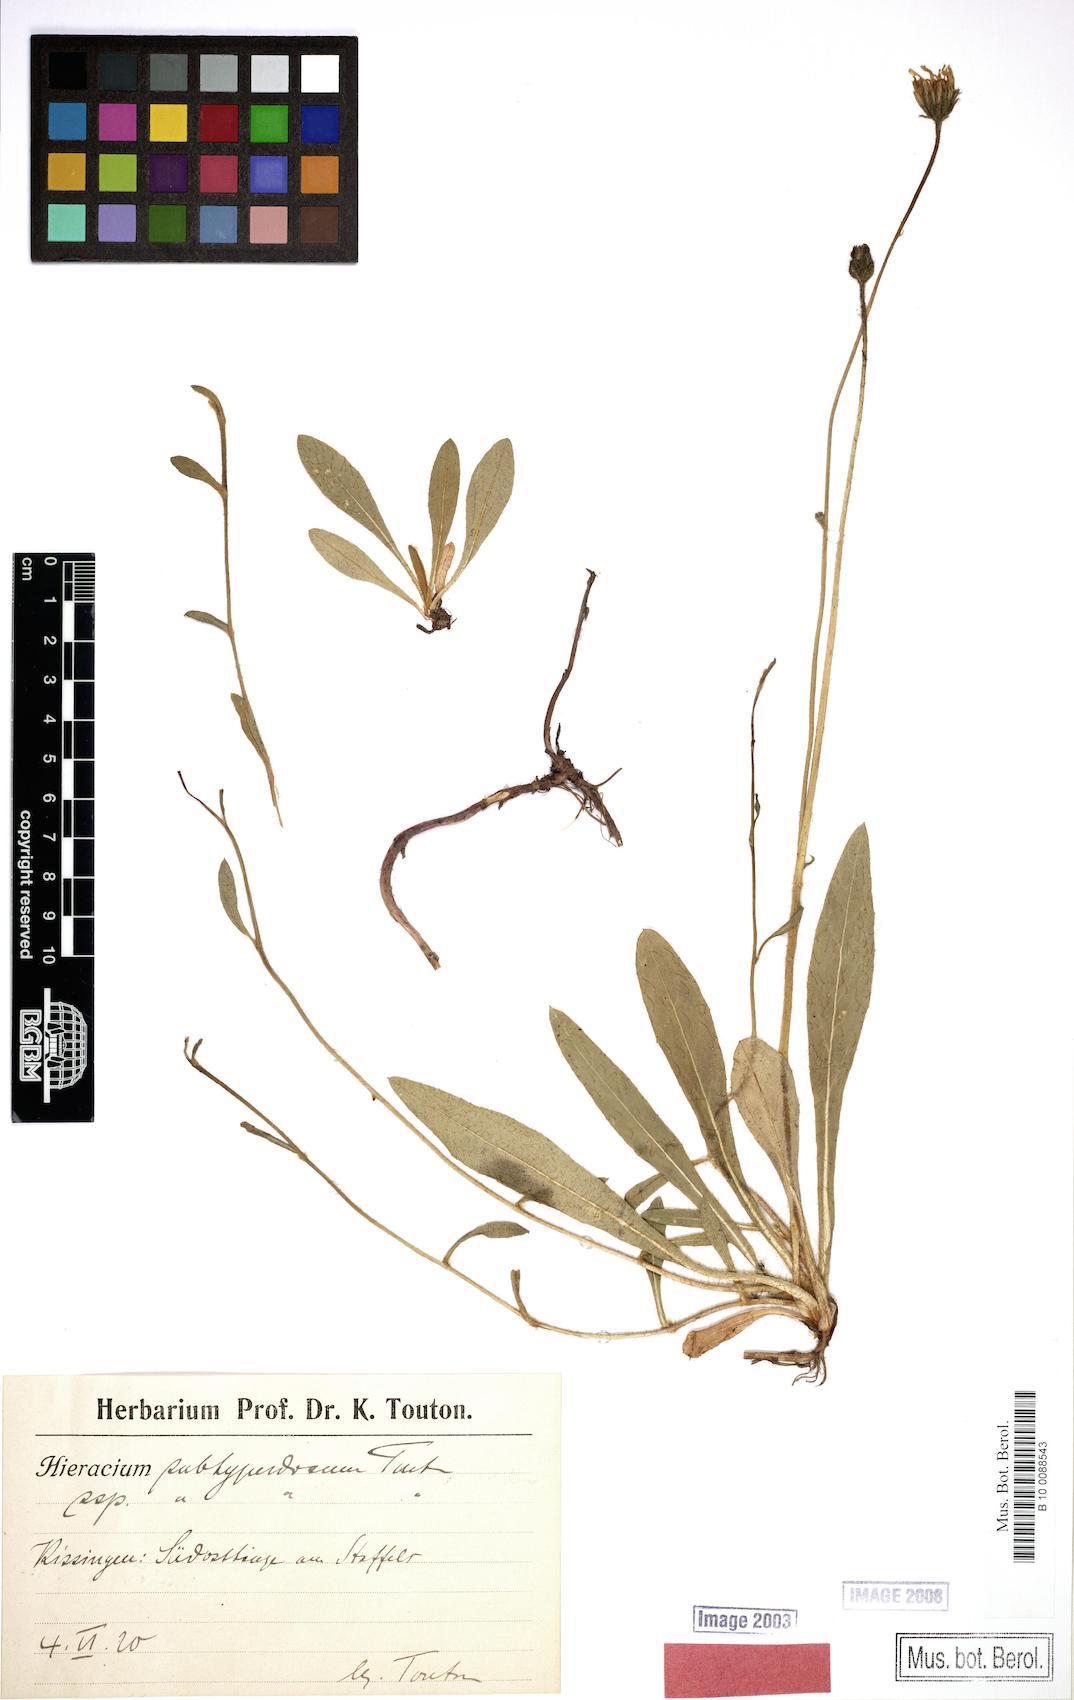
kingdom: Plantae
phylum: Tracheophyta
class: Magnoliopsida
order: Asterales
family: Asteraceae
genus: Pilosella
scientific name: Pilosella pilosellina
